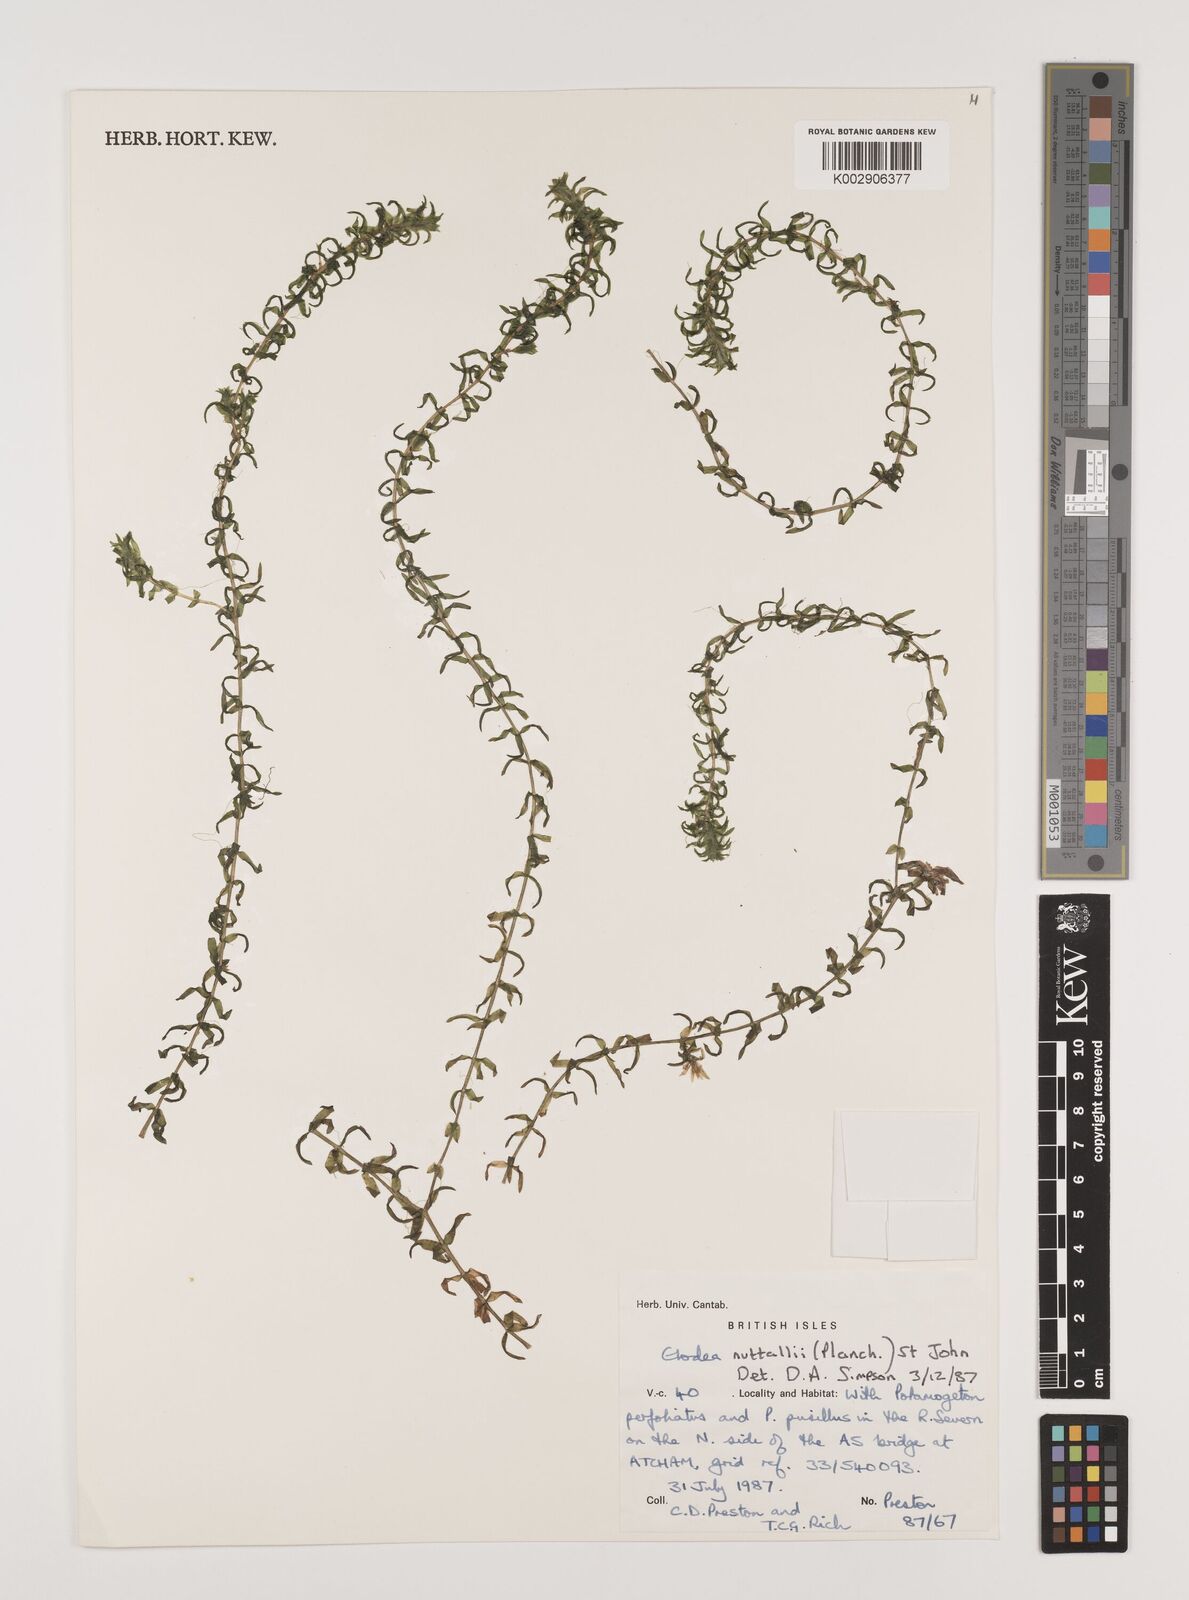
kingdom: Plantae
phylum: Tracheophyta
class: Liliopsida
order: Alismatales
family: Hydrocharitaceae
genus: Elodea
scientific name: Elodea nuttallii
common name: Nuttall's waterweed
